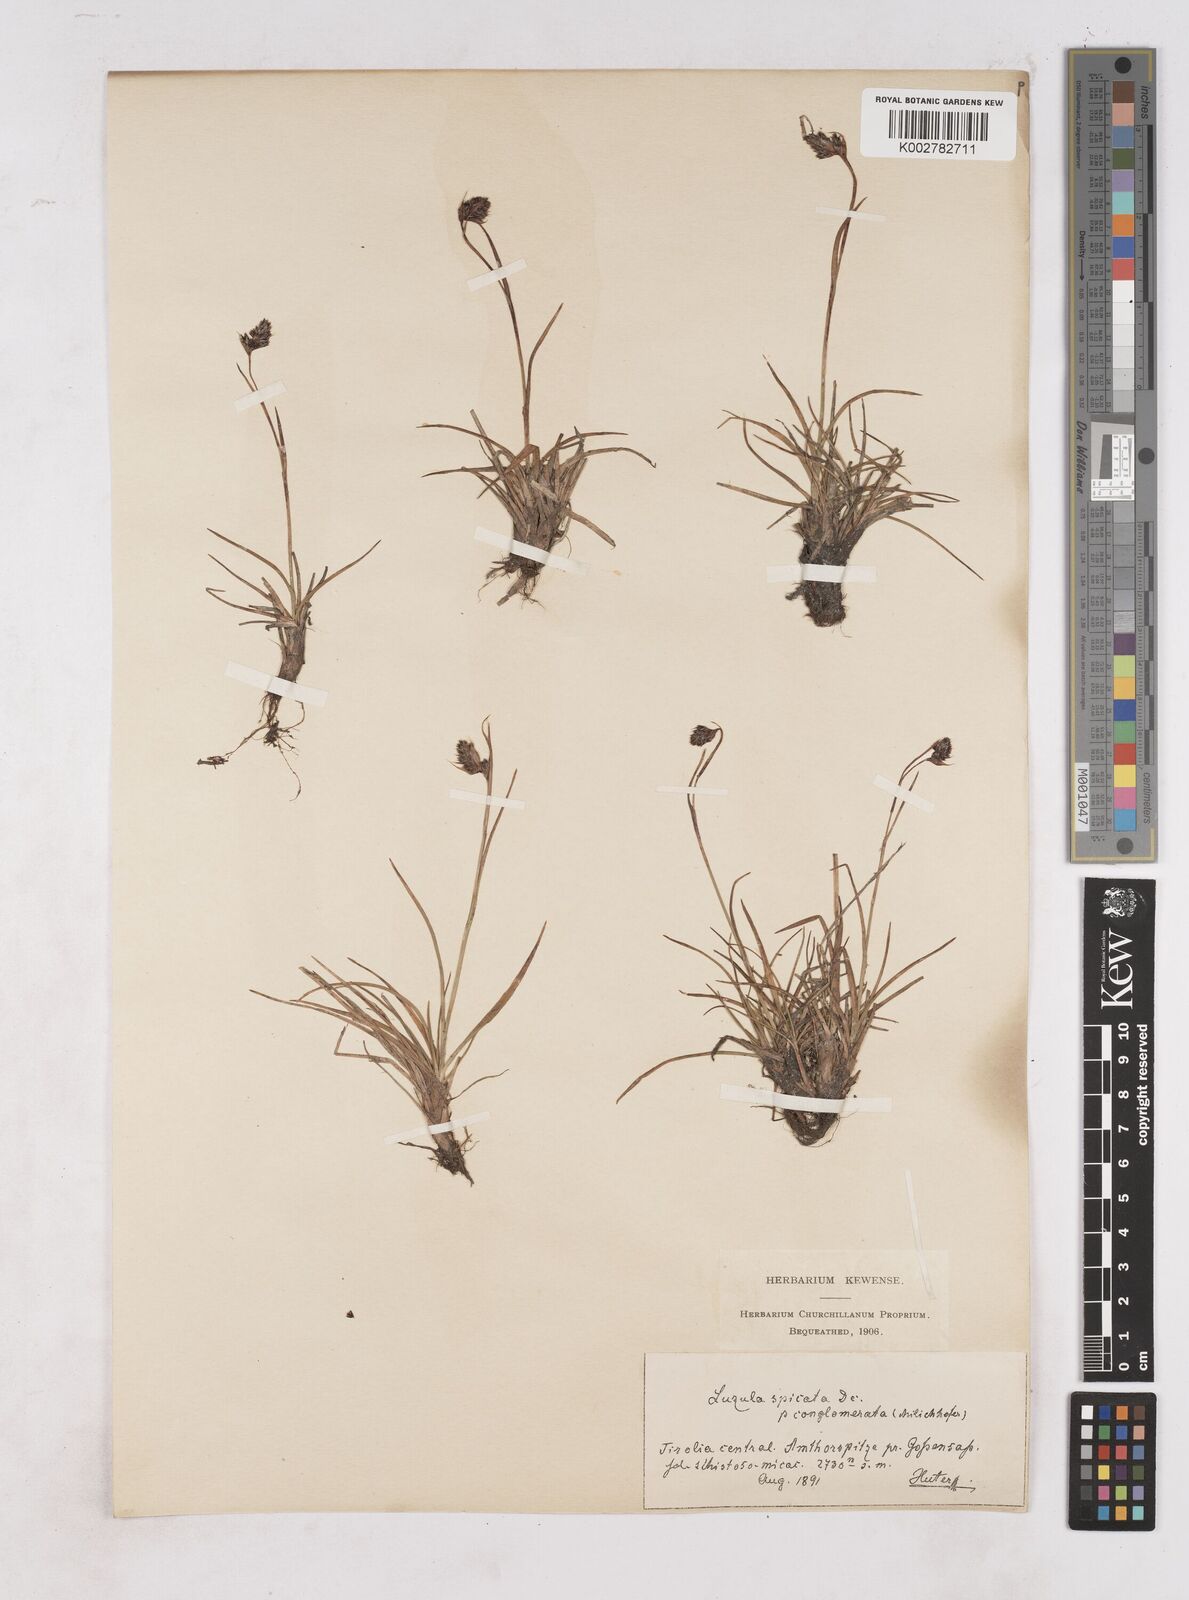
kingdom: Plantae
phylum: Tracheophyta
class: Liliopsida
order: Poales
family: Juncaceae
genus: Luzula
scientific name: Luzula spicata
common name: Spiked wood-rush
